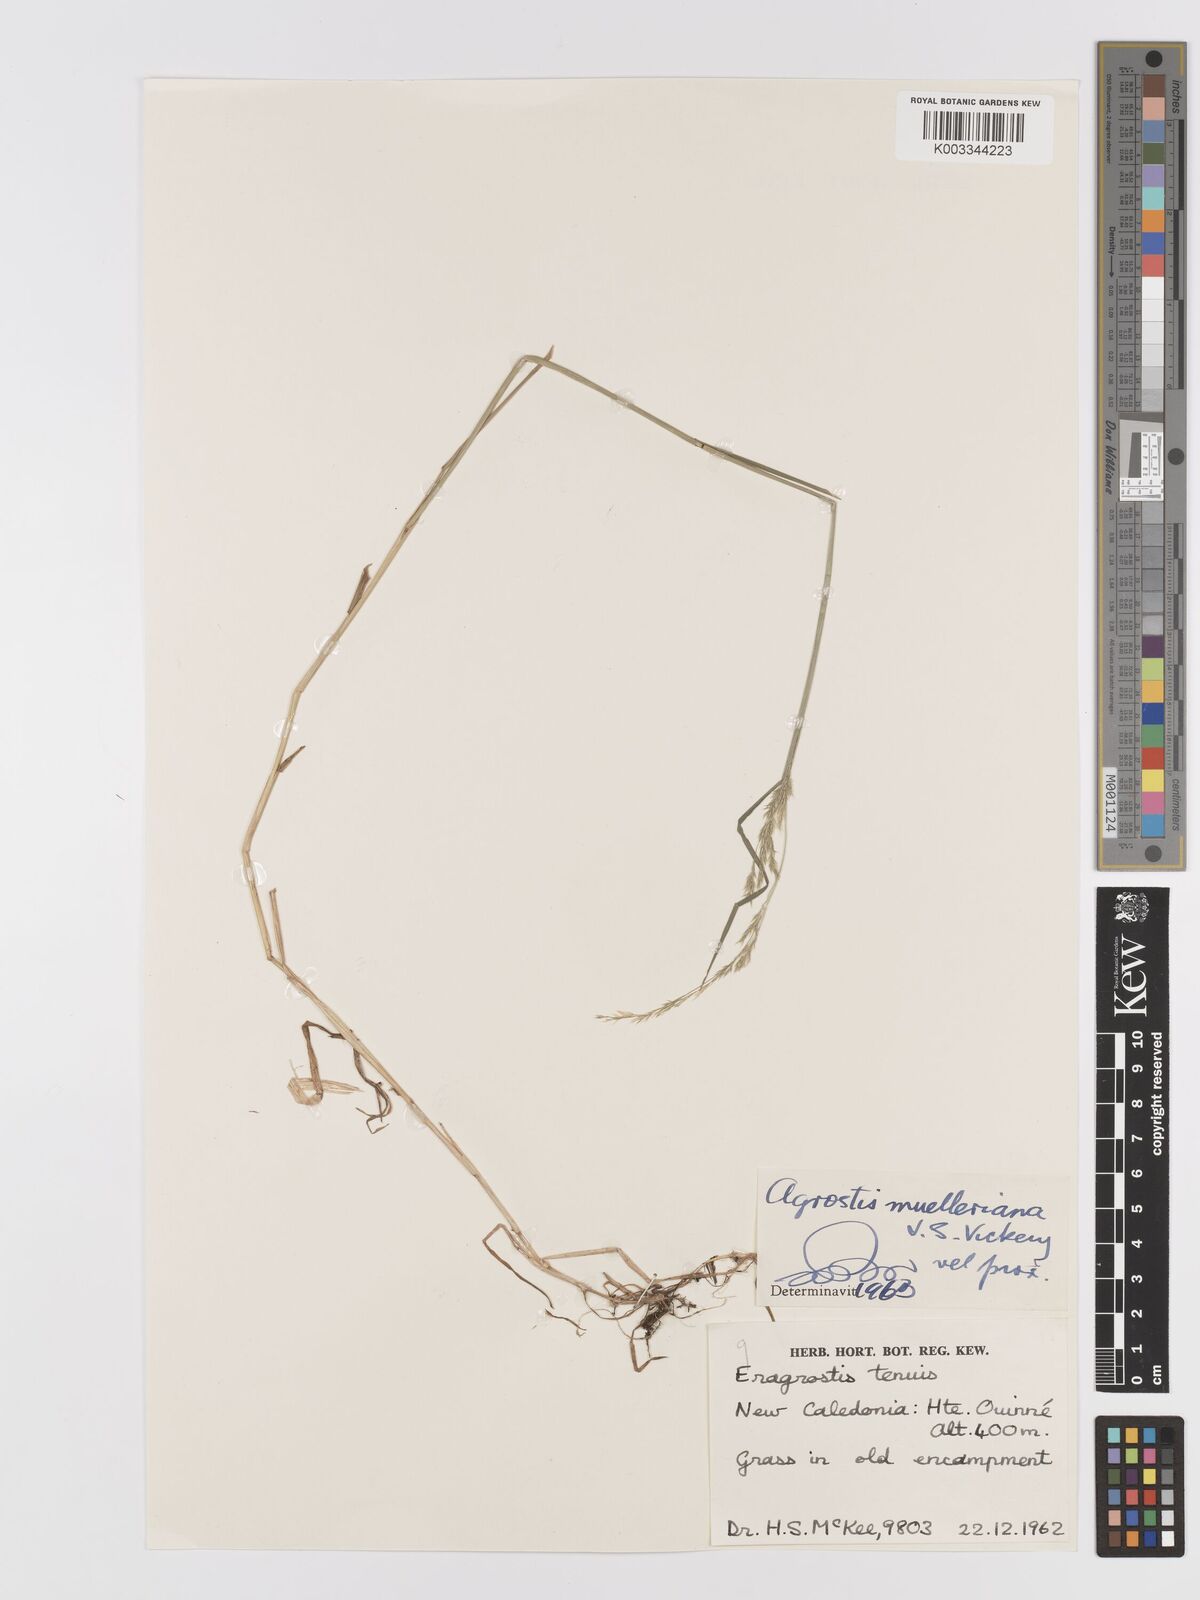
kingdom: Plantae
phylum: Tracheophyta
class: Liliopsida
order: Poales
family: Poaceae
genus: Agrostis
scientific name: Agrostis capillaris
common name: Colonial bentgrass
